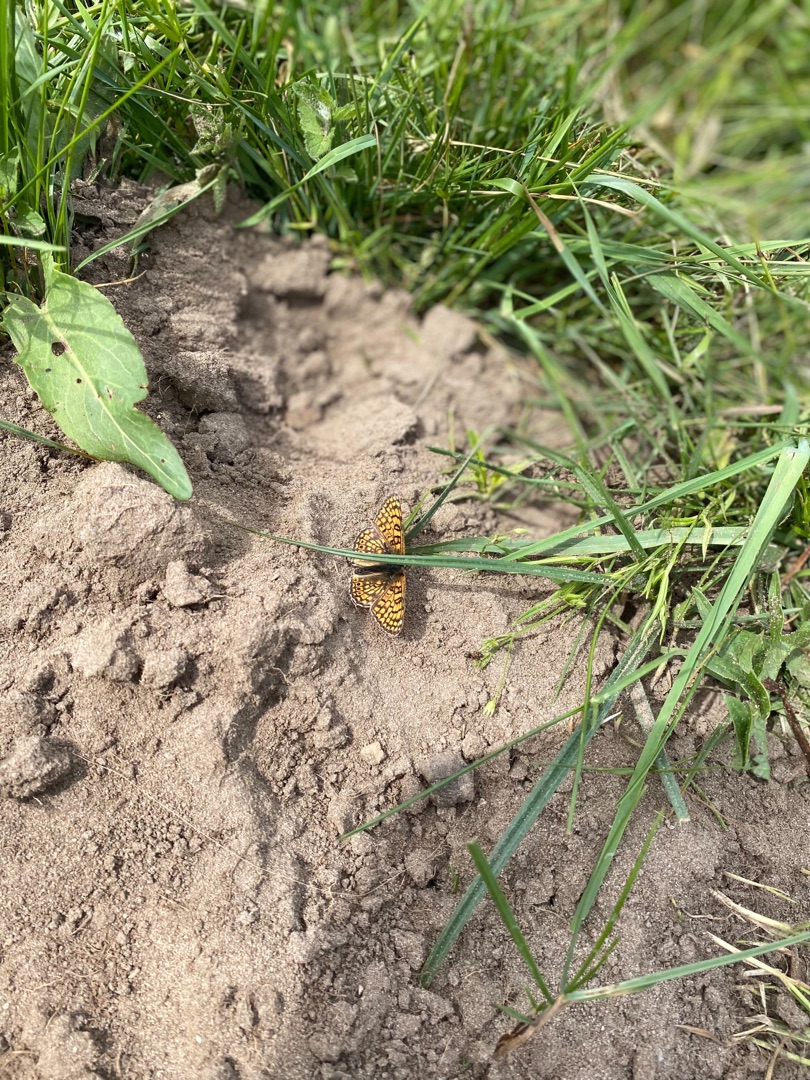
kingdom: Animalia
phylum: Arthropoda
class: Insecta
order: Lepidoptera
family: Nymphalidae
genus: Melitaea
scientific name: Melitaea cinxia
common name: Okkergul pletvinge
